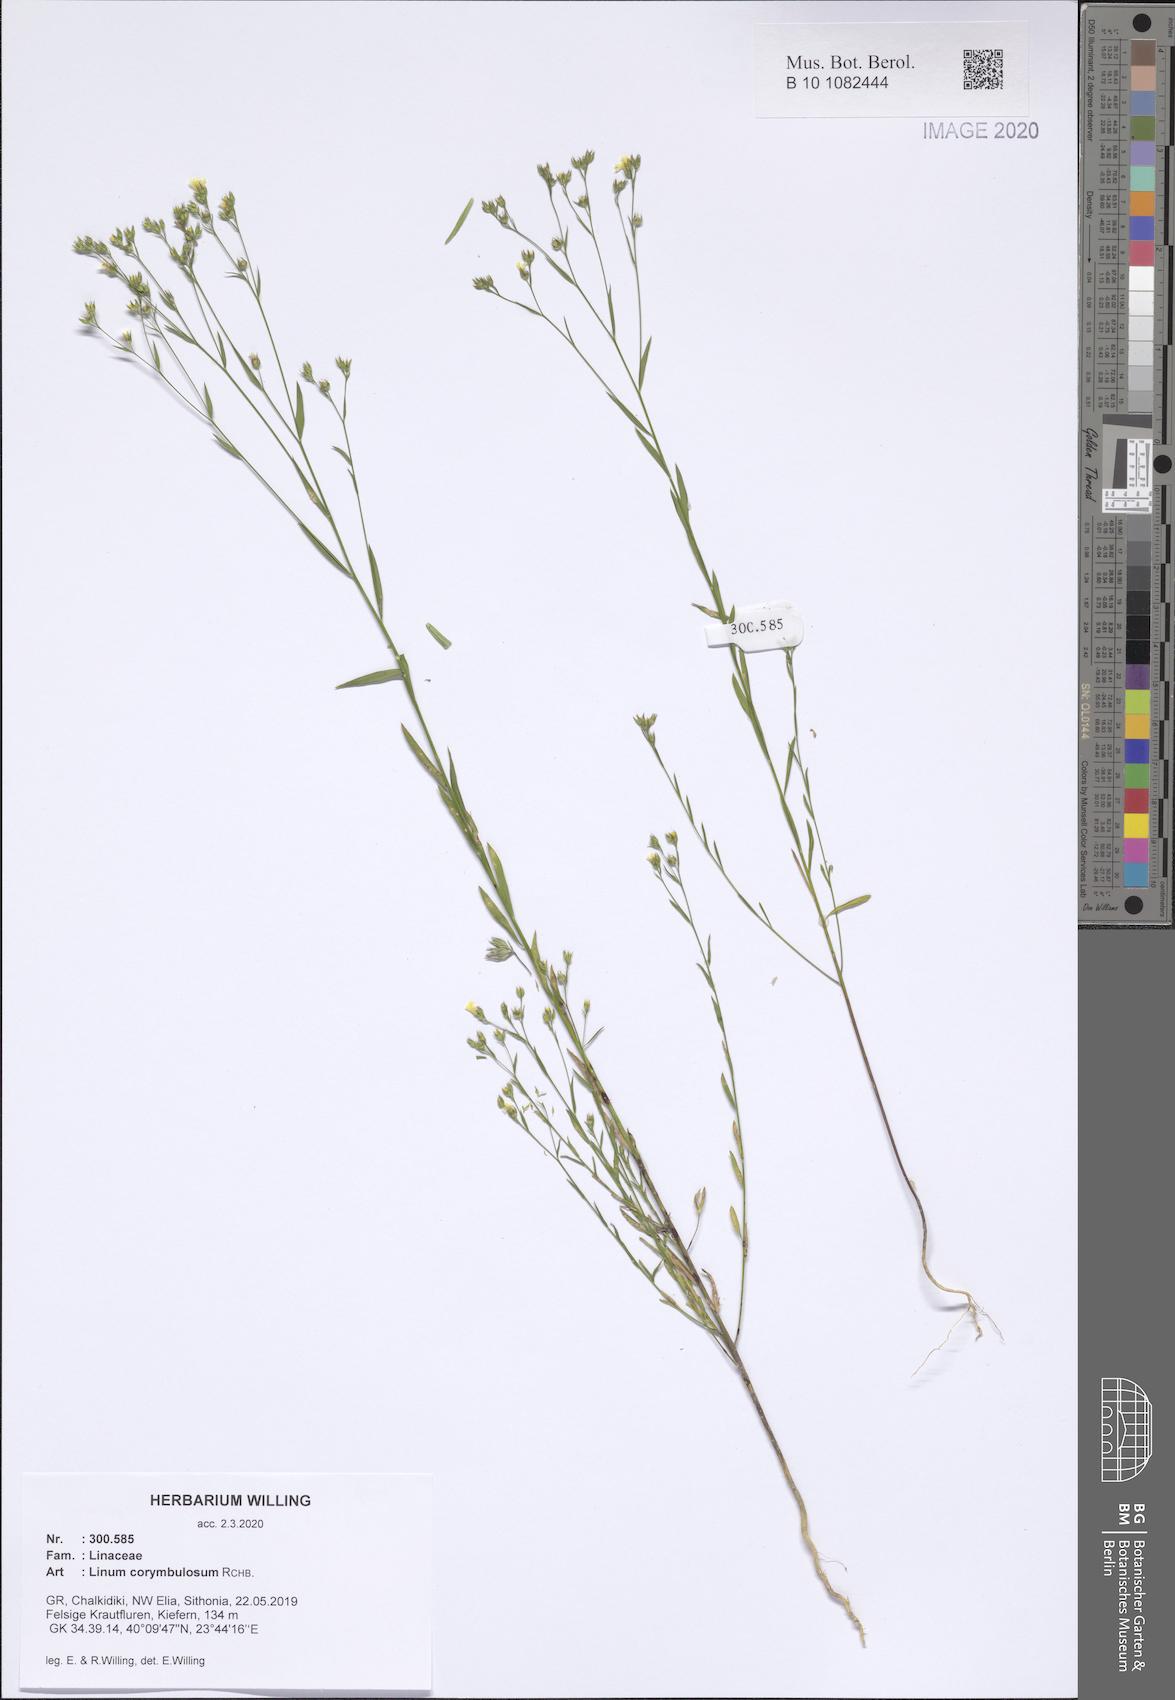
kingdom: Plantae
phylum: Tracheophyta
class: Magnoliopsida
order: Malpighiales
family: Linaceae
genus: Linum
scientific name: Linum corymbulosum
